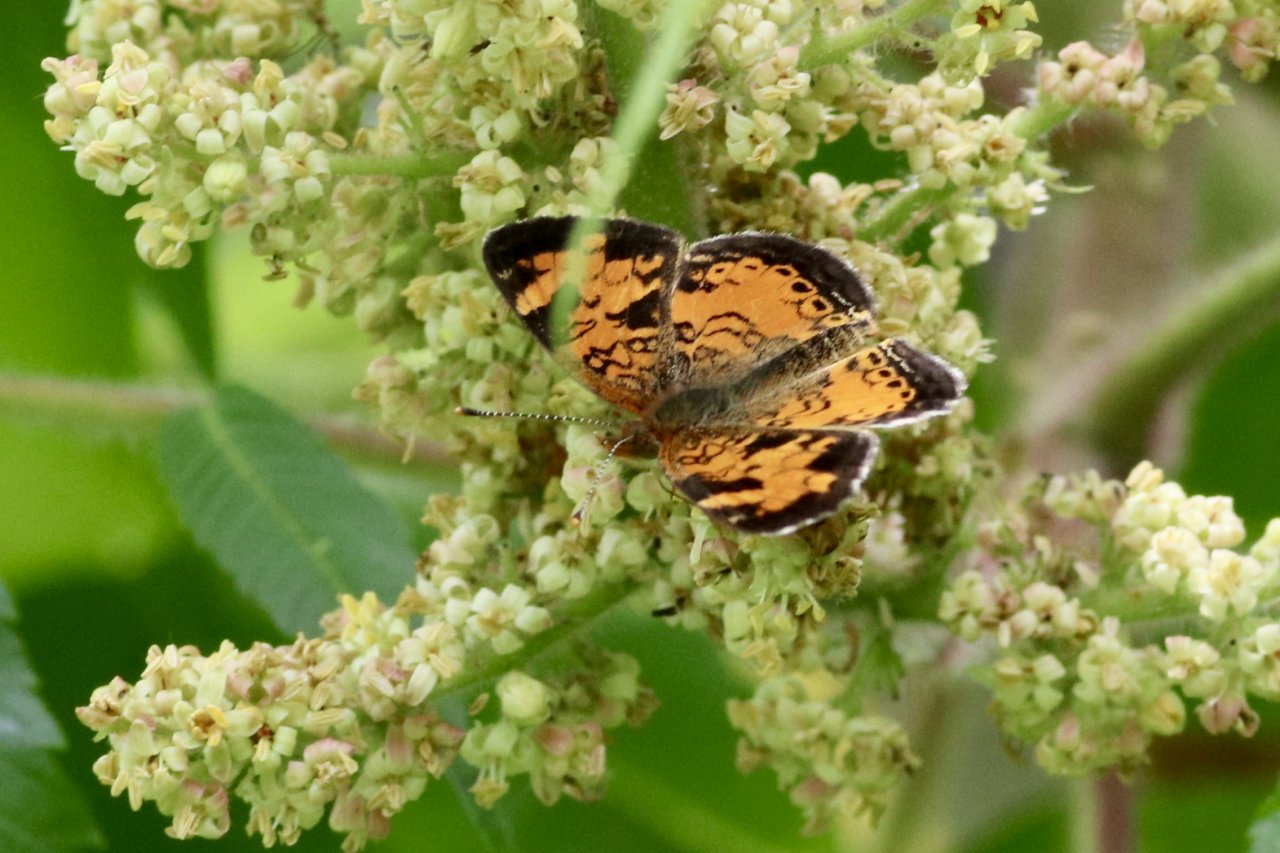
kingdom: Animalia
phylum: Arthropoda
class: Insecta
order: Lepidoptera
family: Nymphalidae
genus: Phyciodes
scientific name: Phyciodes tharos
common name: Northern Crescent
